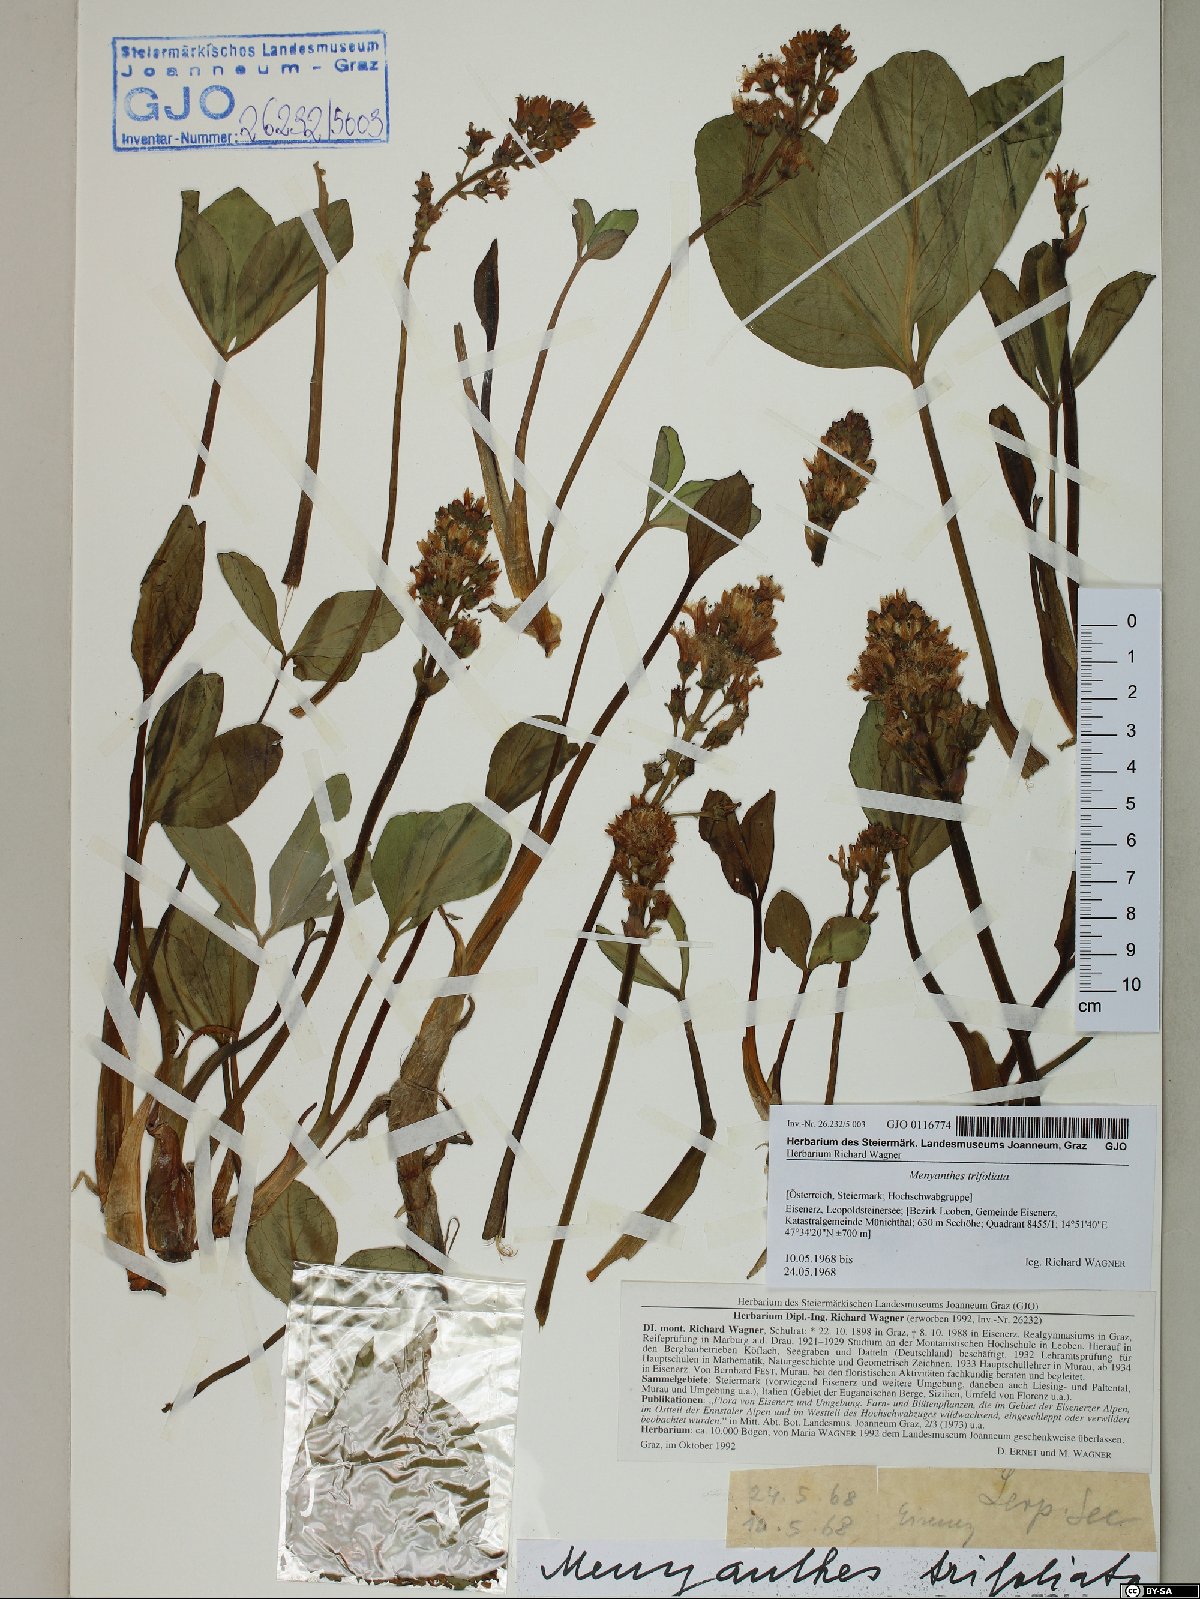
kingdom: Plantae
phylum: Tracheophyta
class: Magnoliopsida
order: Asterales
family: Menyanthaceae
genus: Menyanthes
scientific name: Menyanthes trifoliata
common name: Bogbean
